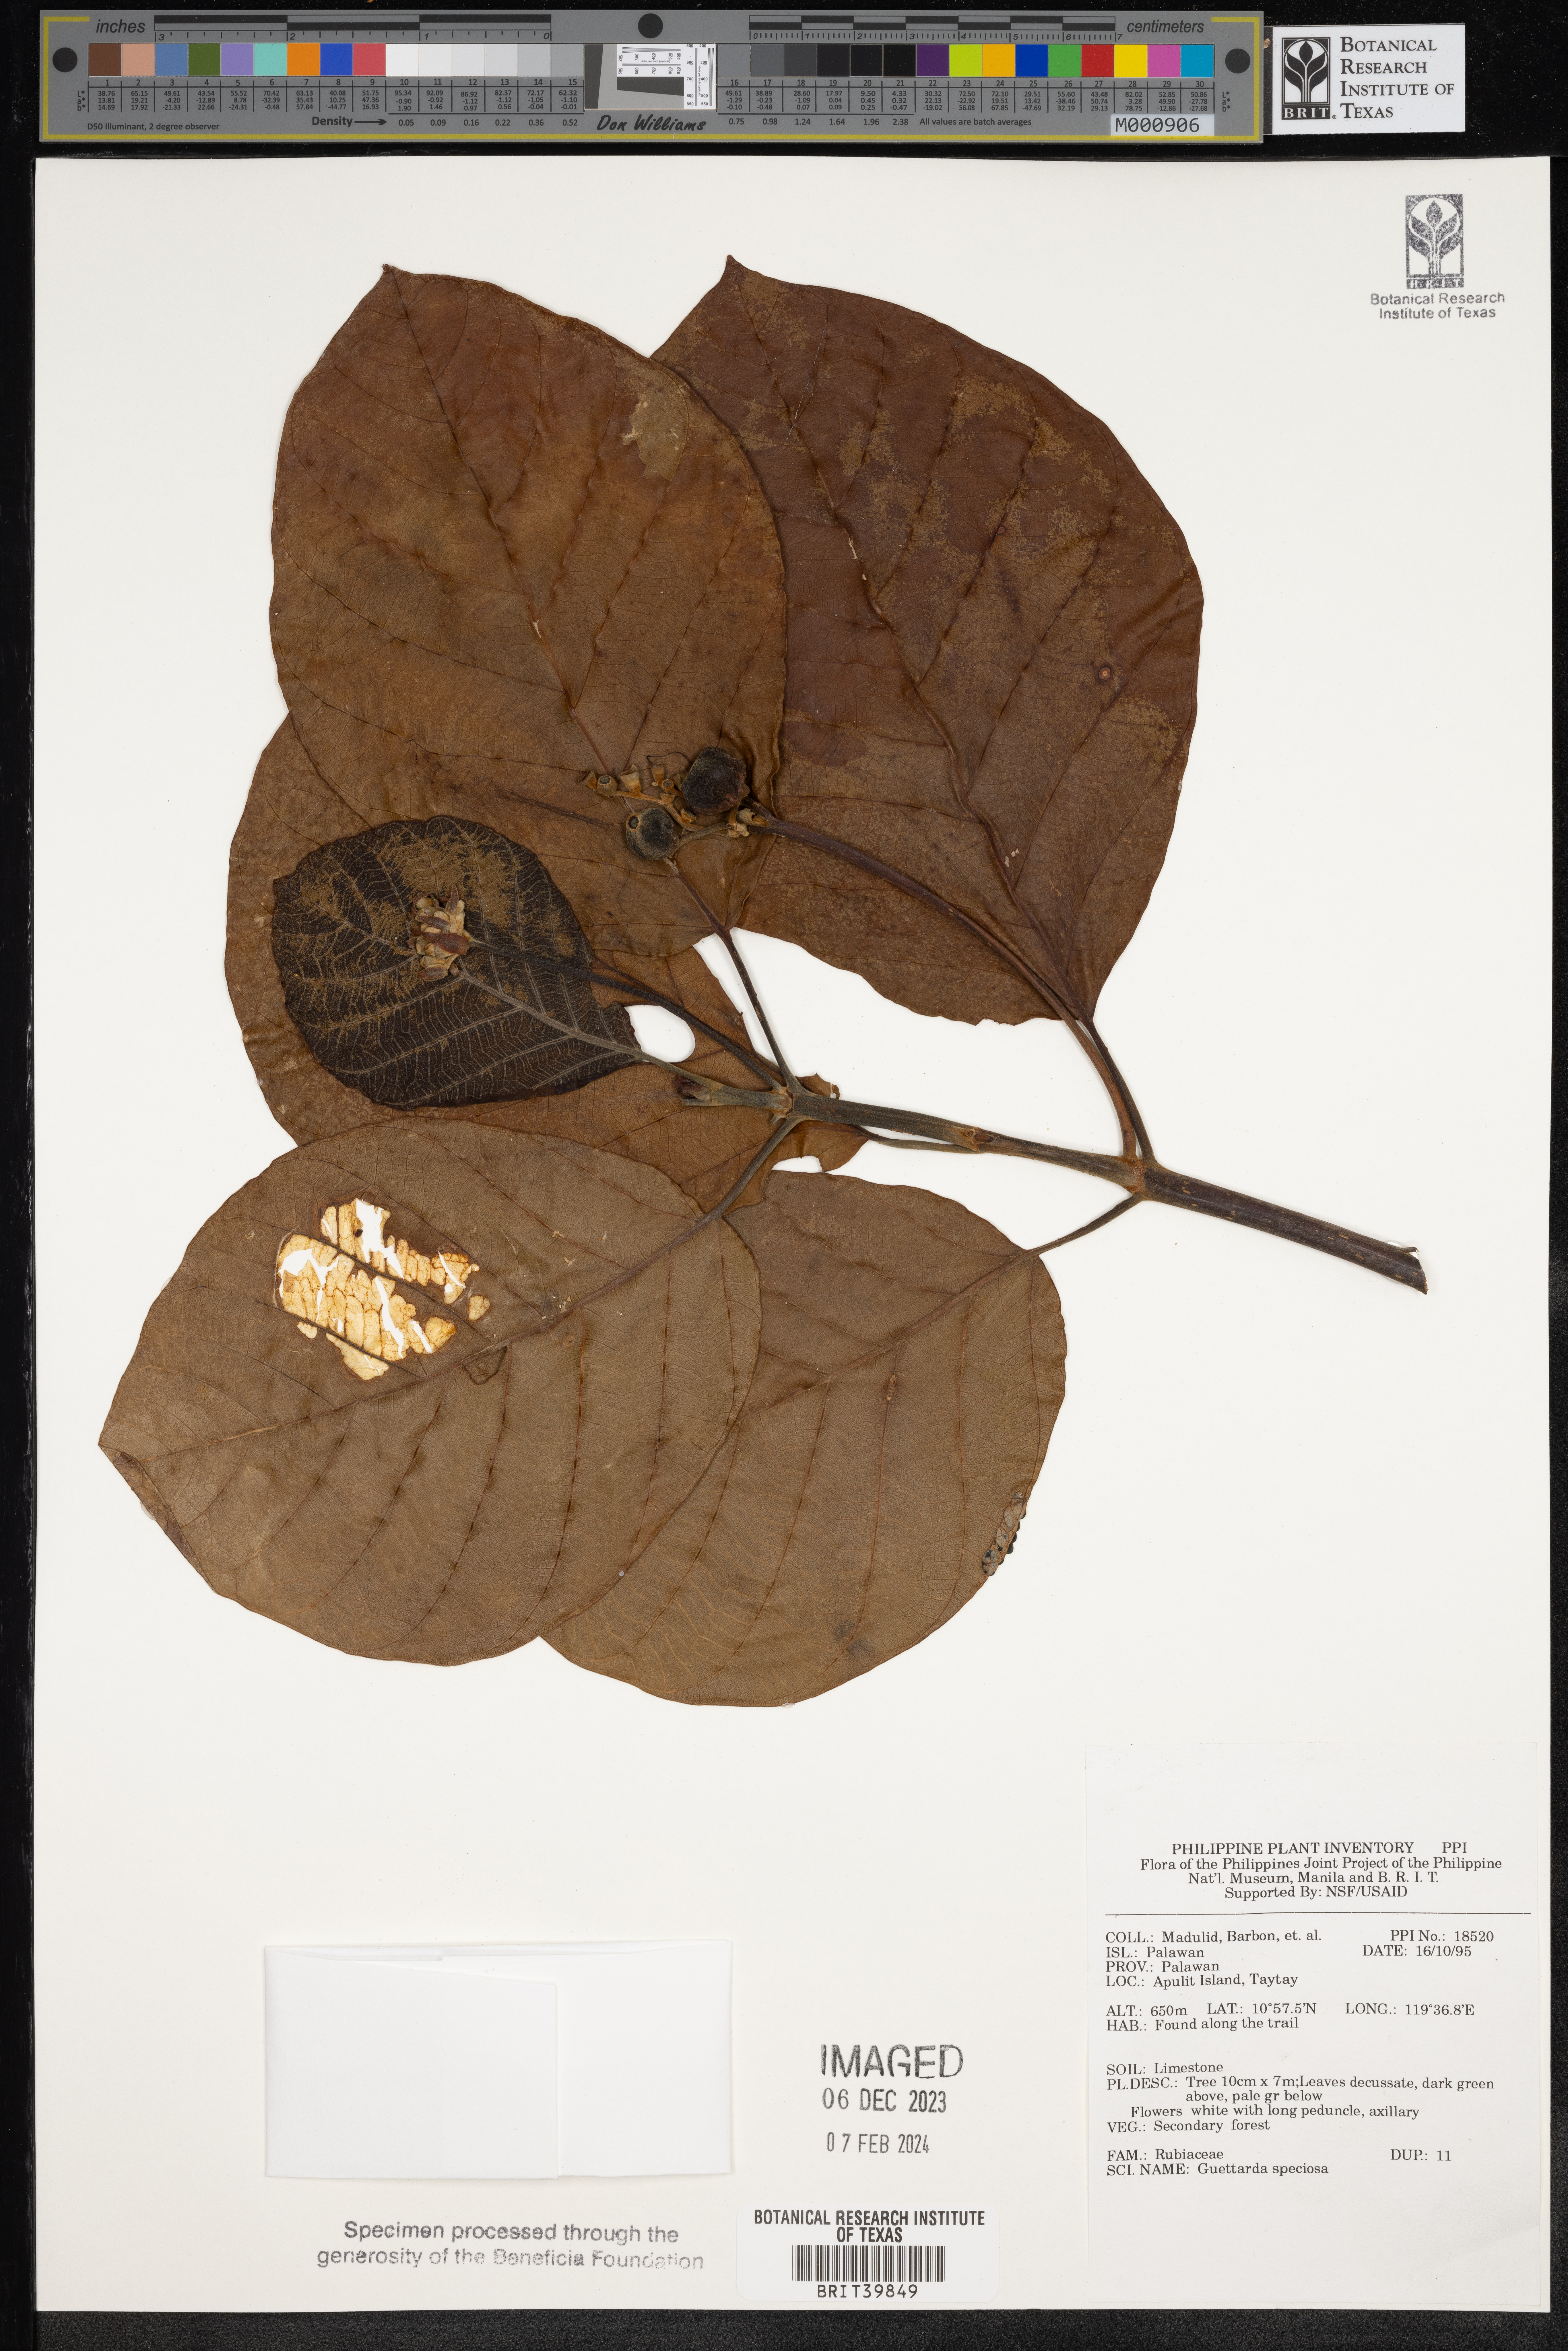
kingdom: Plantae
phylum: Tracheophyta
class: Magnoliopsida
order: Gentianales
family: Rubiaceae
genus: Guettarda
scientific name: Guettarda speciosa
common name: Sea randa
